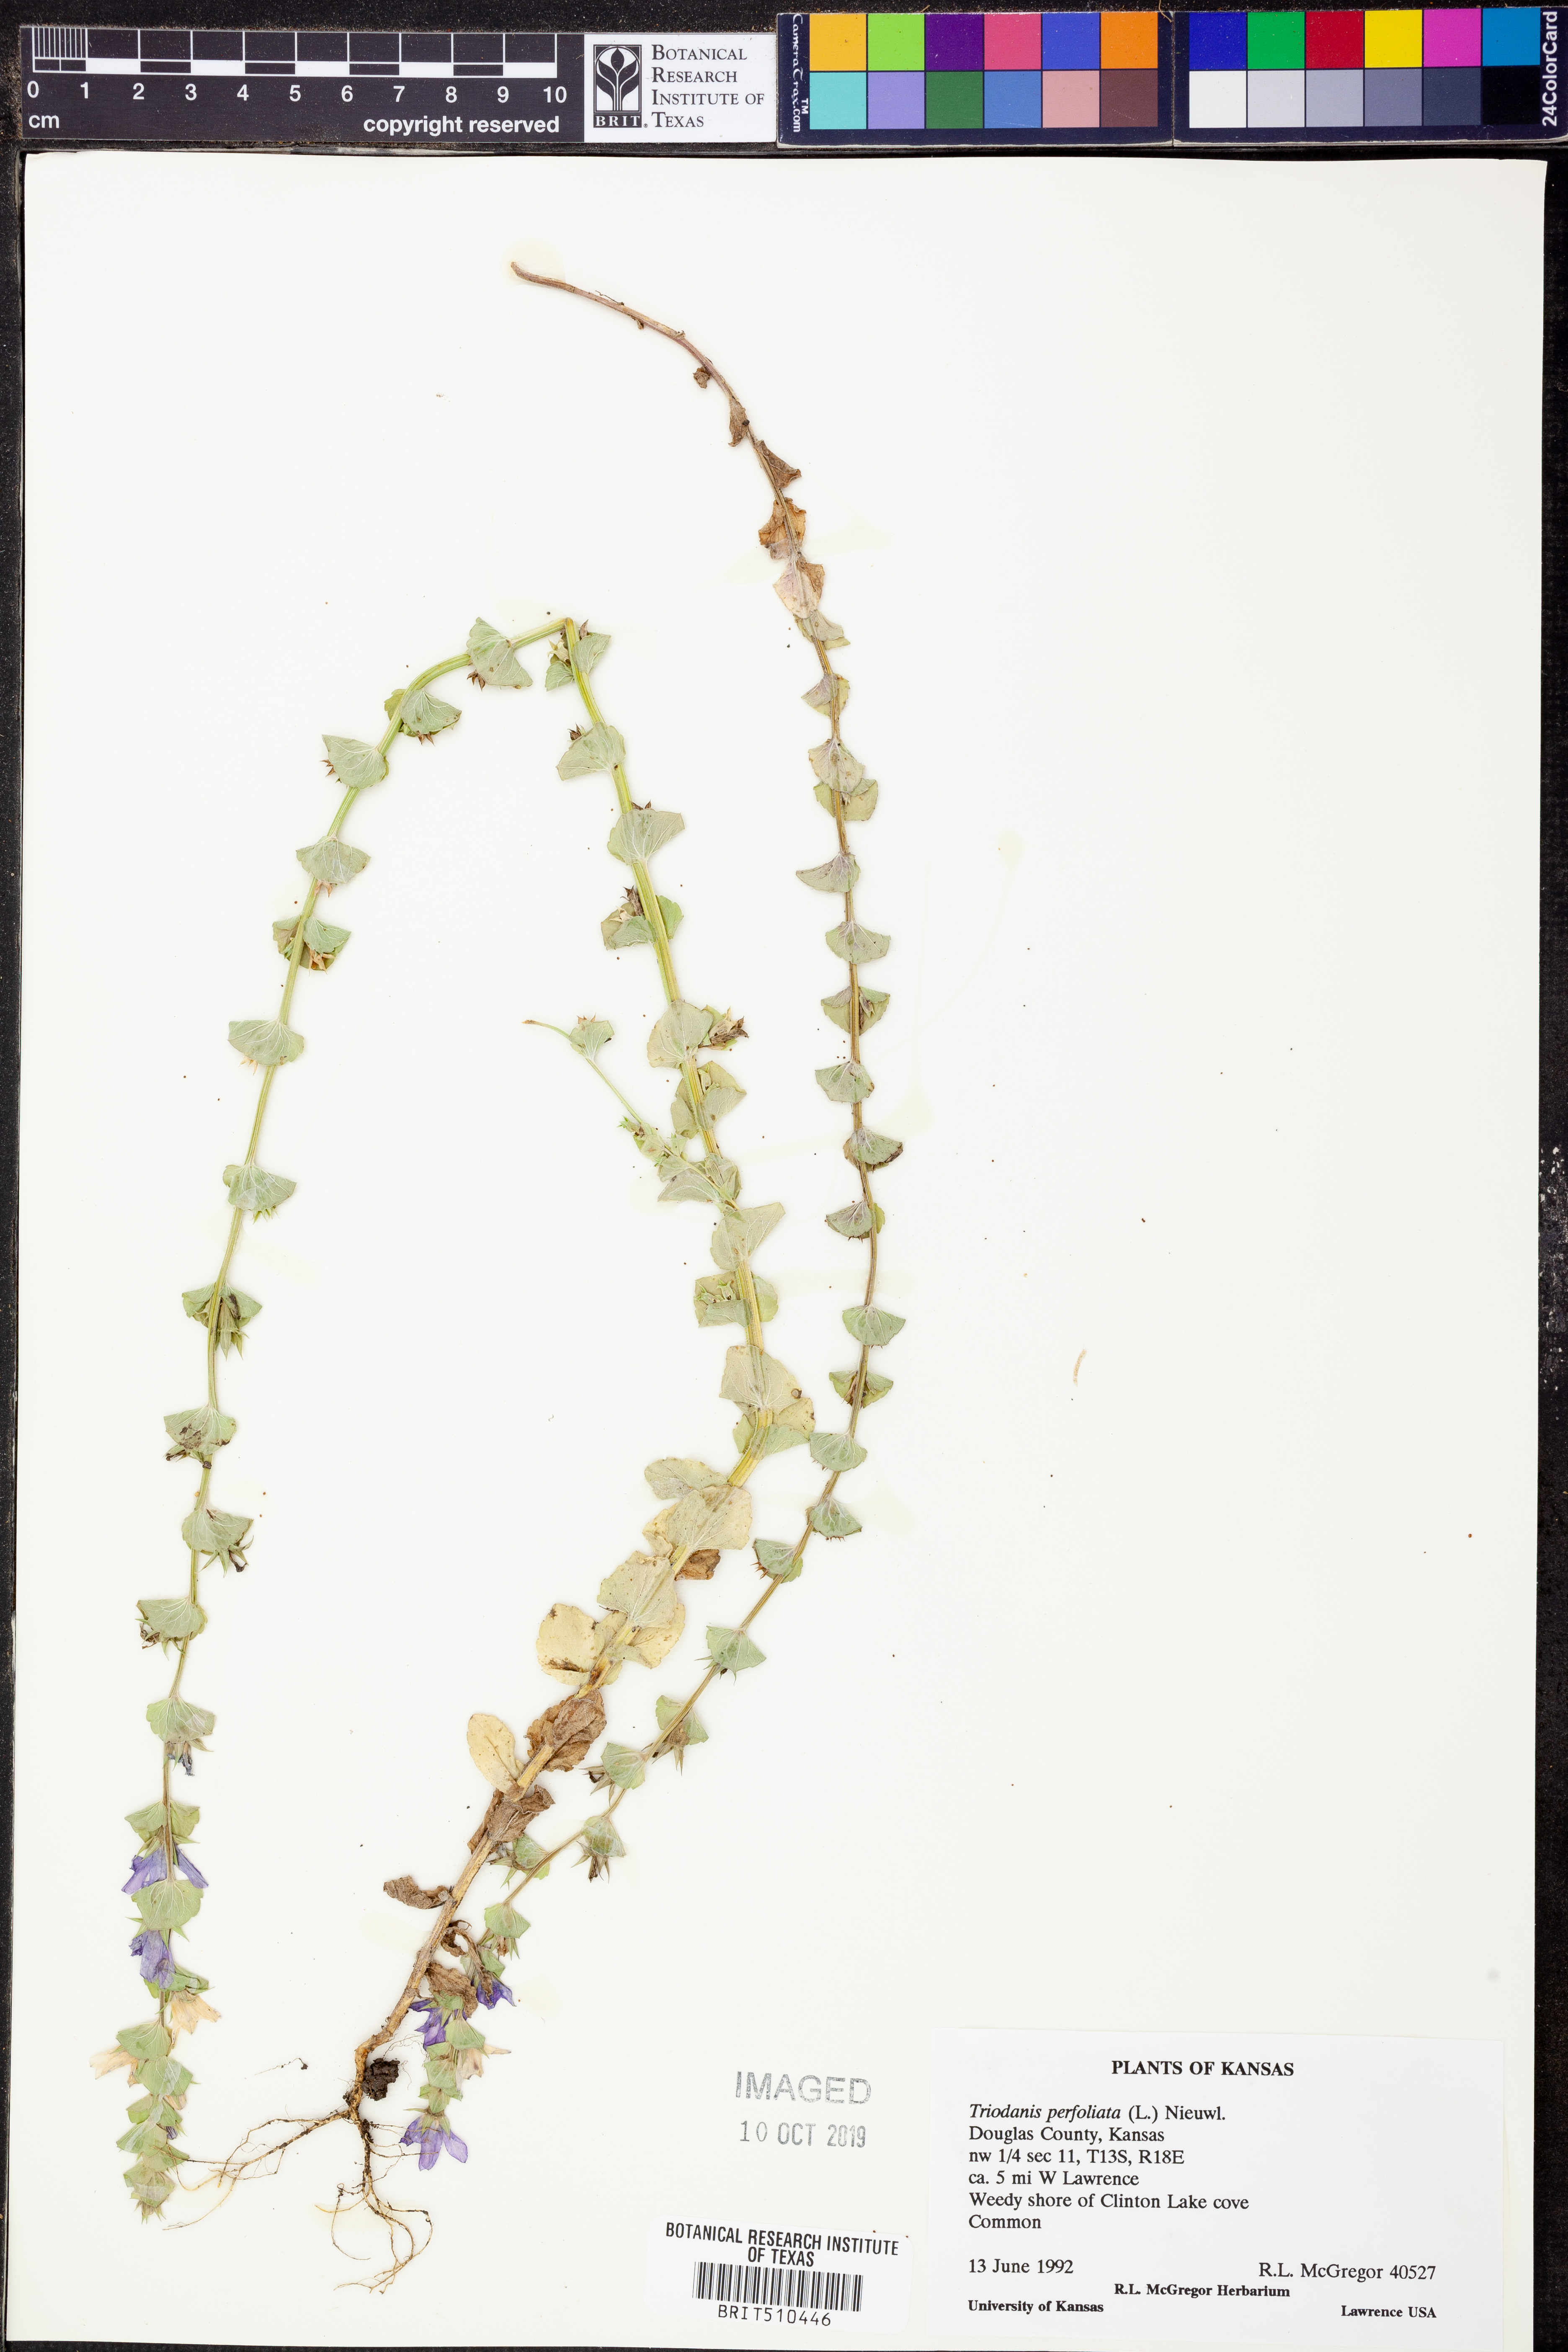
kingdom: Plantae
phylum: Tracheophyta
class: Magnoliopsida
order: Asterales
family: Campanulaceae
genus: Triodanis
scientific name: Triodanis perfoliata
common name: Clasping venus' looking-glass
